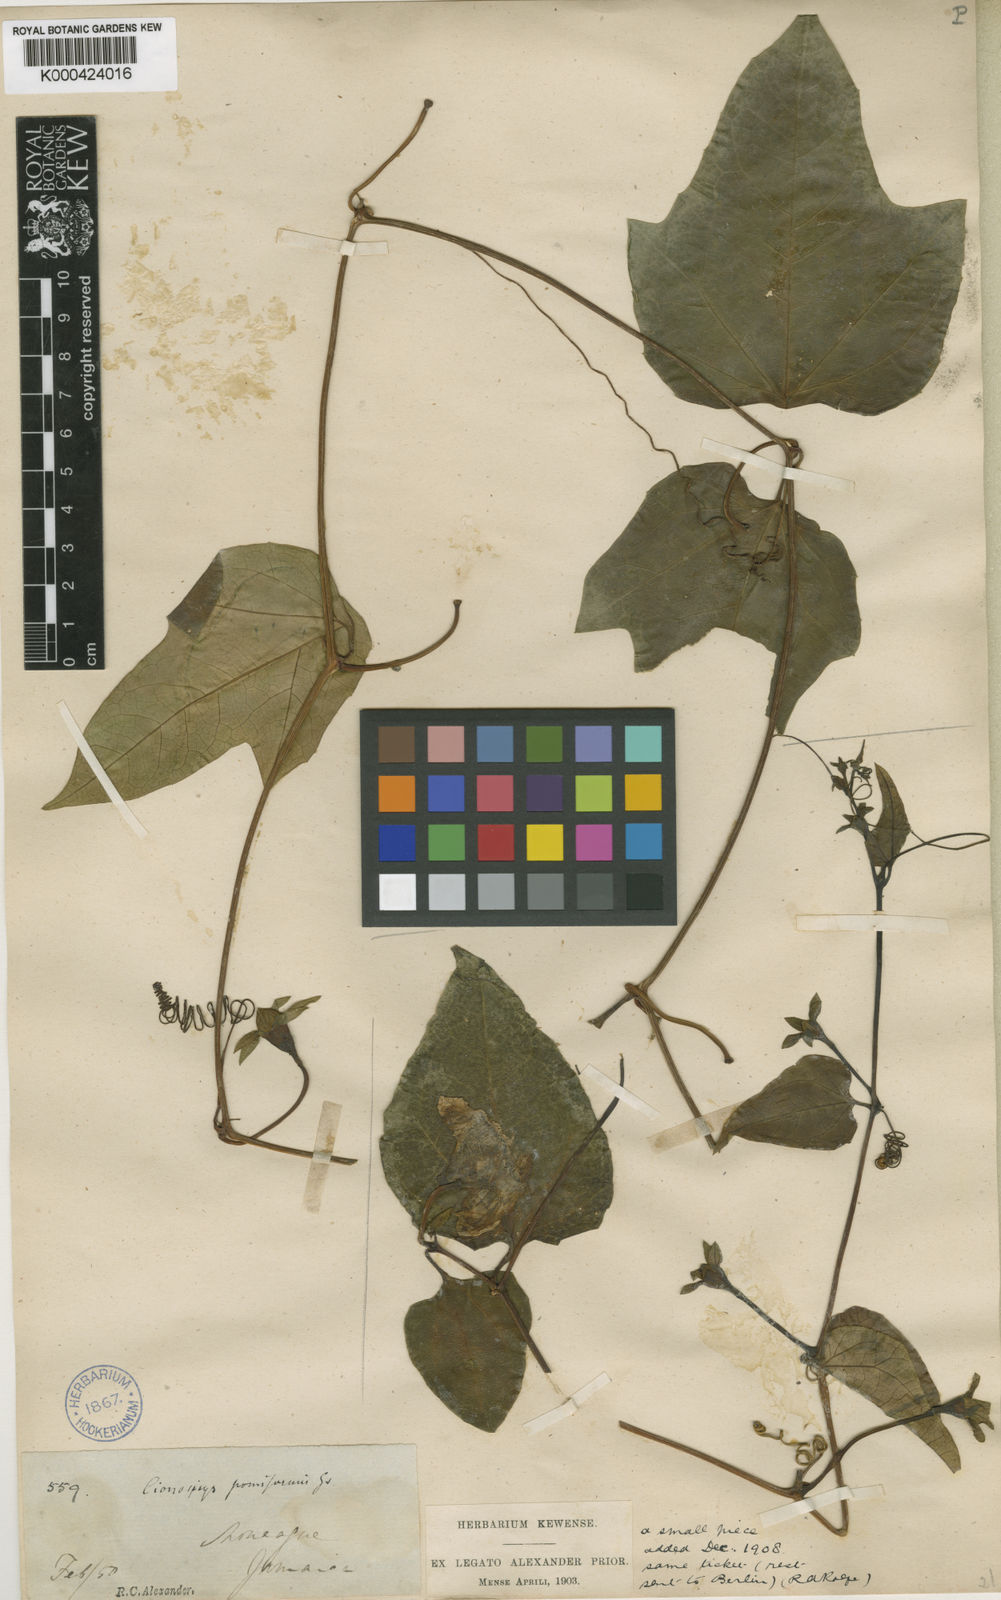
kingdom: Plantae
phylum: Tracheophyta
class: Magnoliopsida
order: Cucurbitales
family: Cucurbitaceae
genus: Cionosicys
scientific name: Cionosicys pomiformis
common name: Duppy gourd
